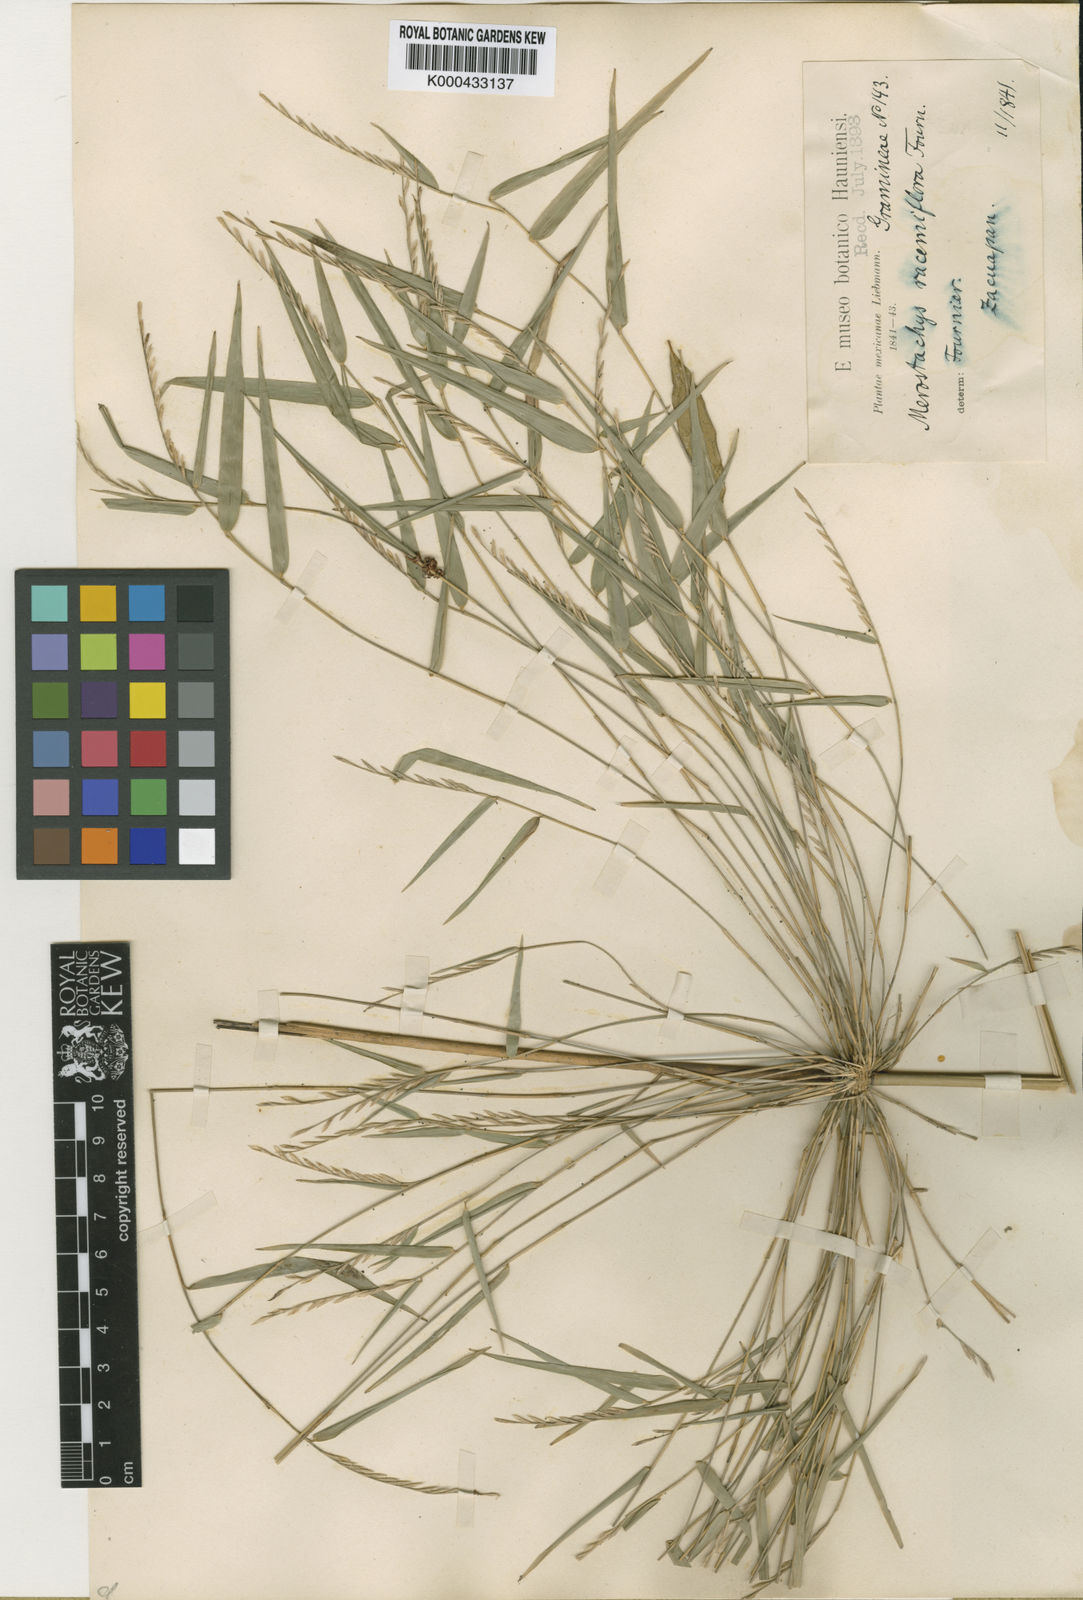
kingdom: Plantae
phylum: Tracheophyta
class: Liliopsida
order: Poales
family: Poaceae
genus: Rhipidocladum
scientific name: Rhipidocladum racemiflorum
